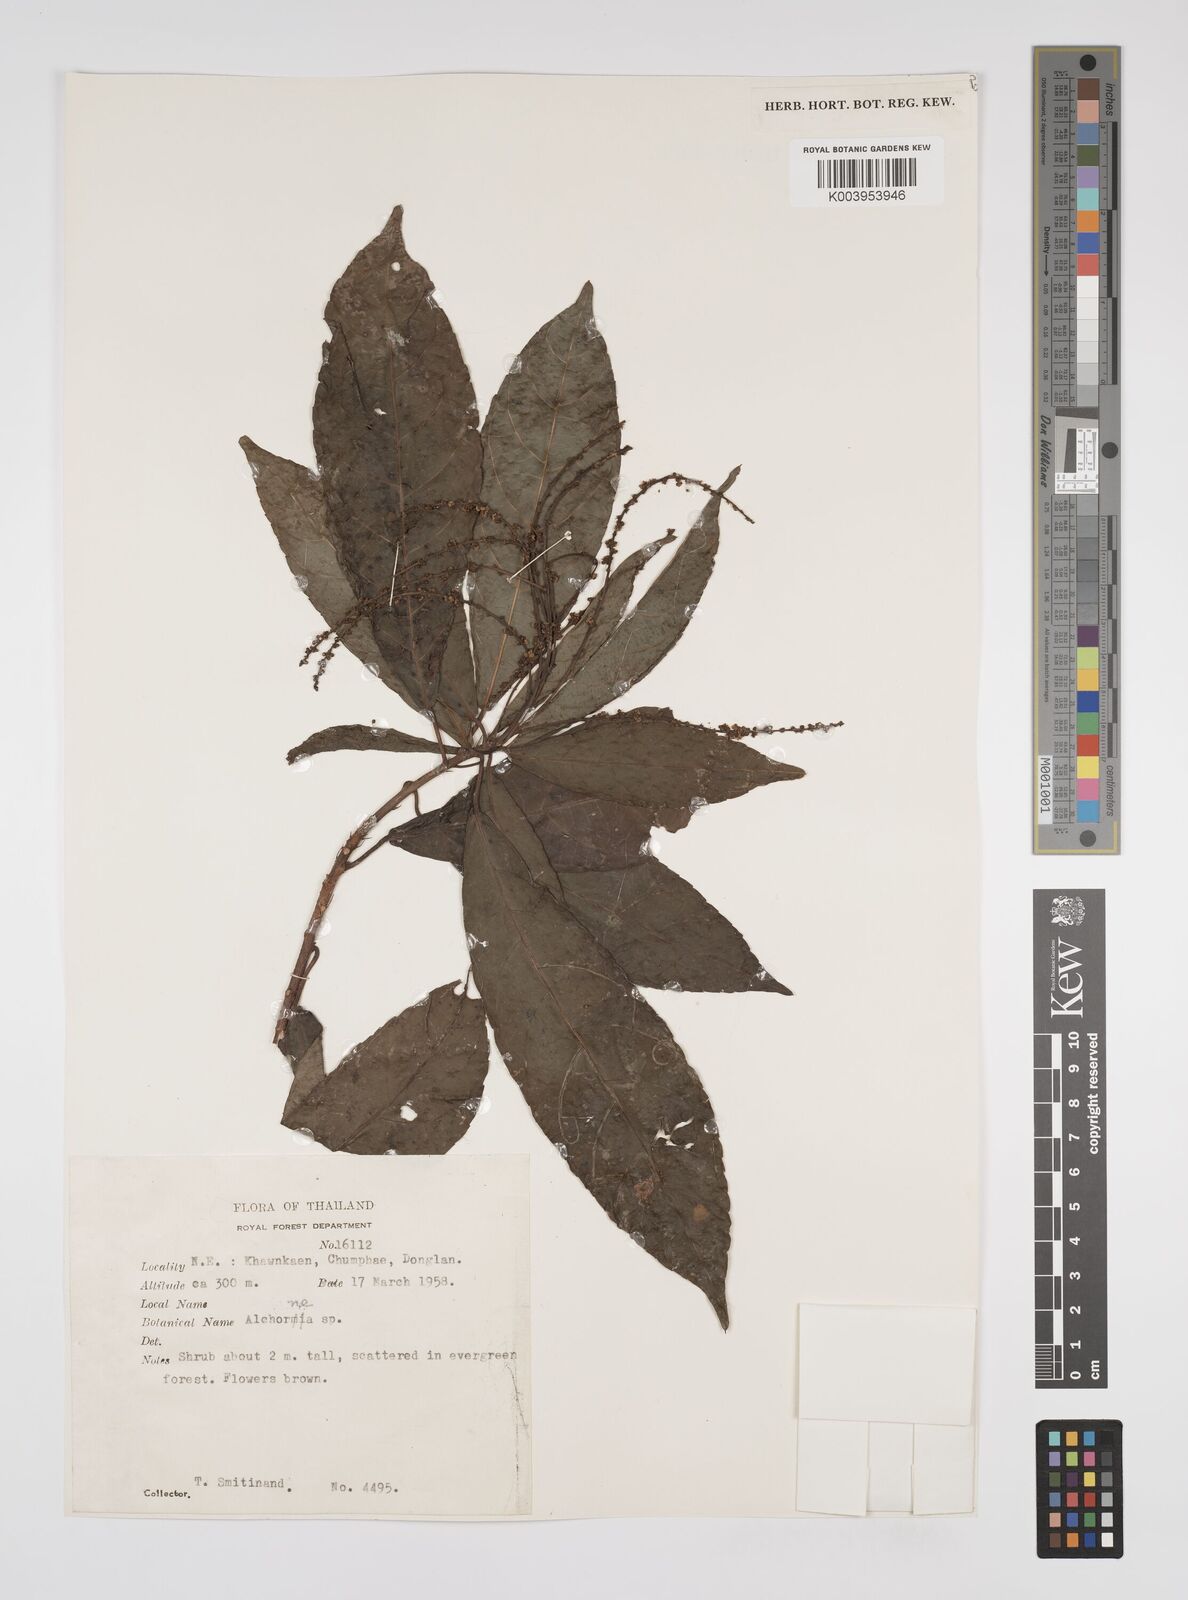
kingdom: Plantae
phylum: Tracheophyta
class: Magnoliopsida
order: Malpighiales
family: Euphorbiaceae
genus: Alchornea
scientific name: Alchornea rugosa
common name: Alchorntree
